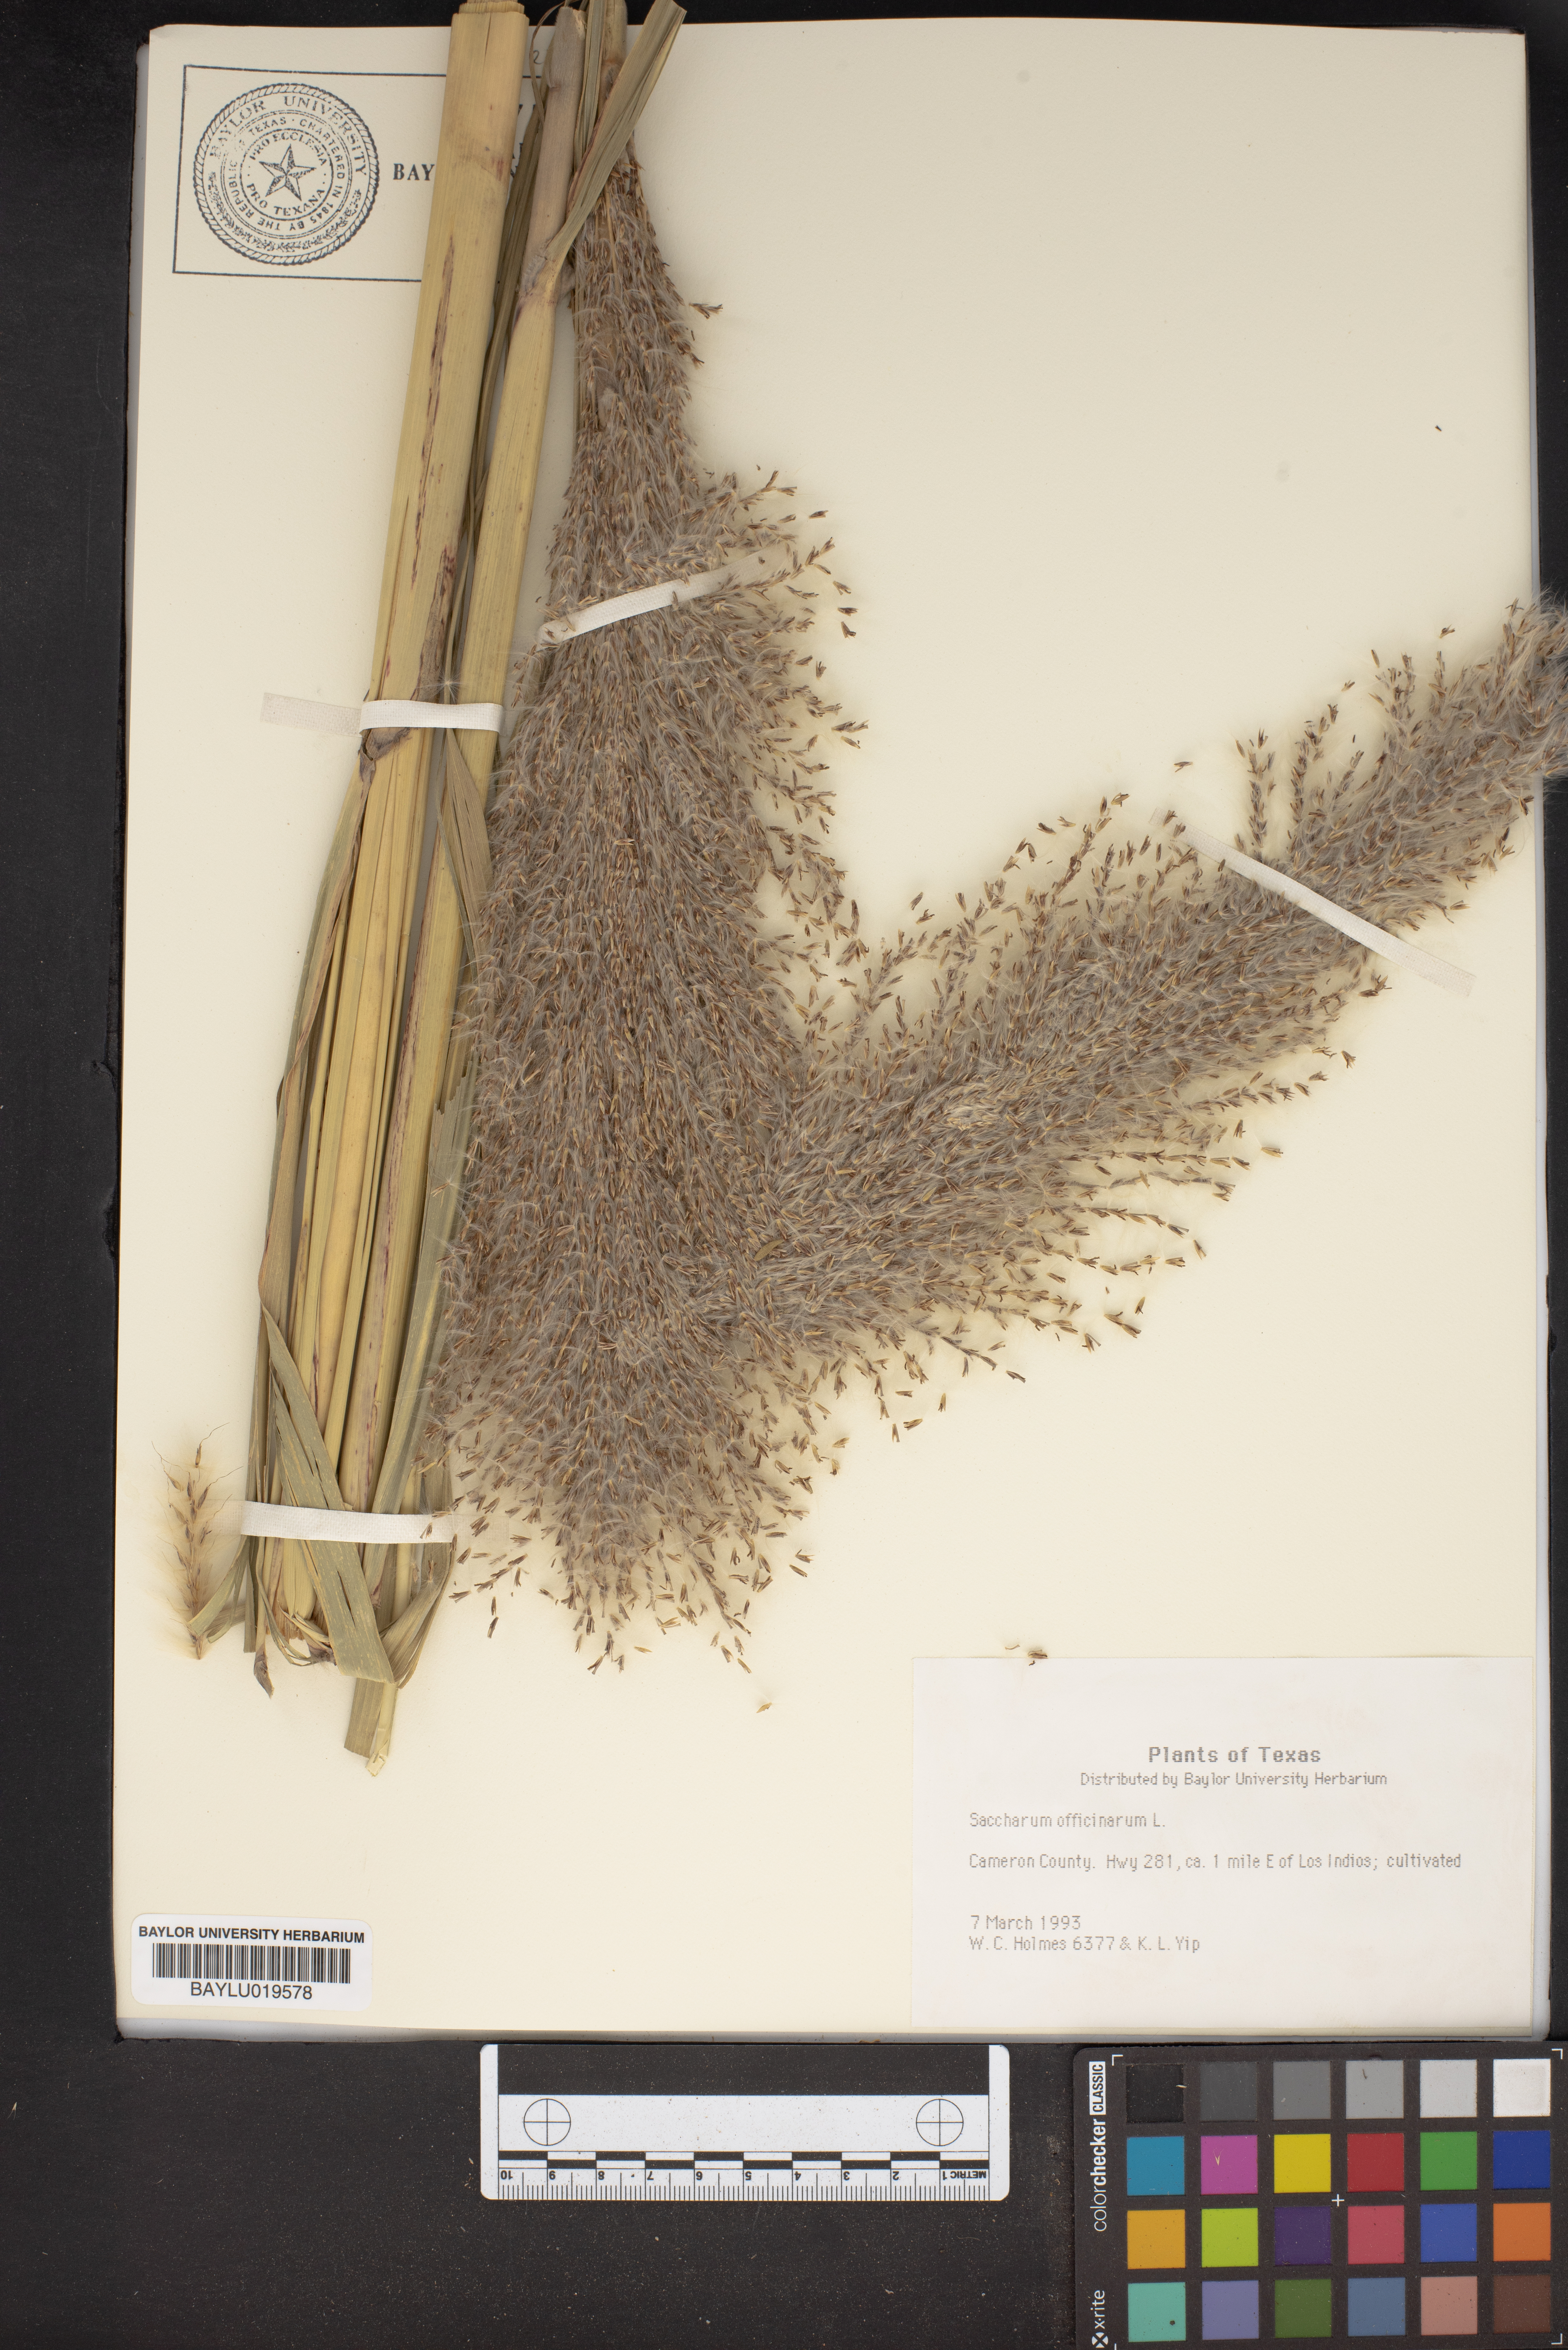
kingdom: Plantae
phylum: Tracheophyta
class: Liliopsida
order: Poales
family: Poaceae
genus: Saccharum
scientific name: Saccharum officinarum
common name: Sugarcane
